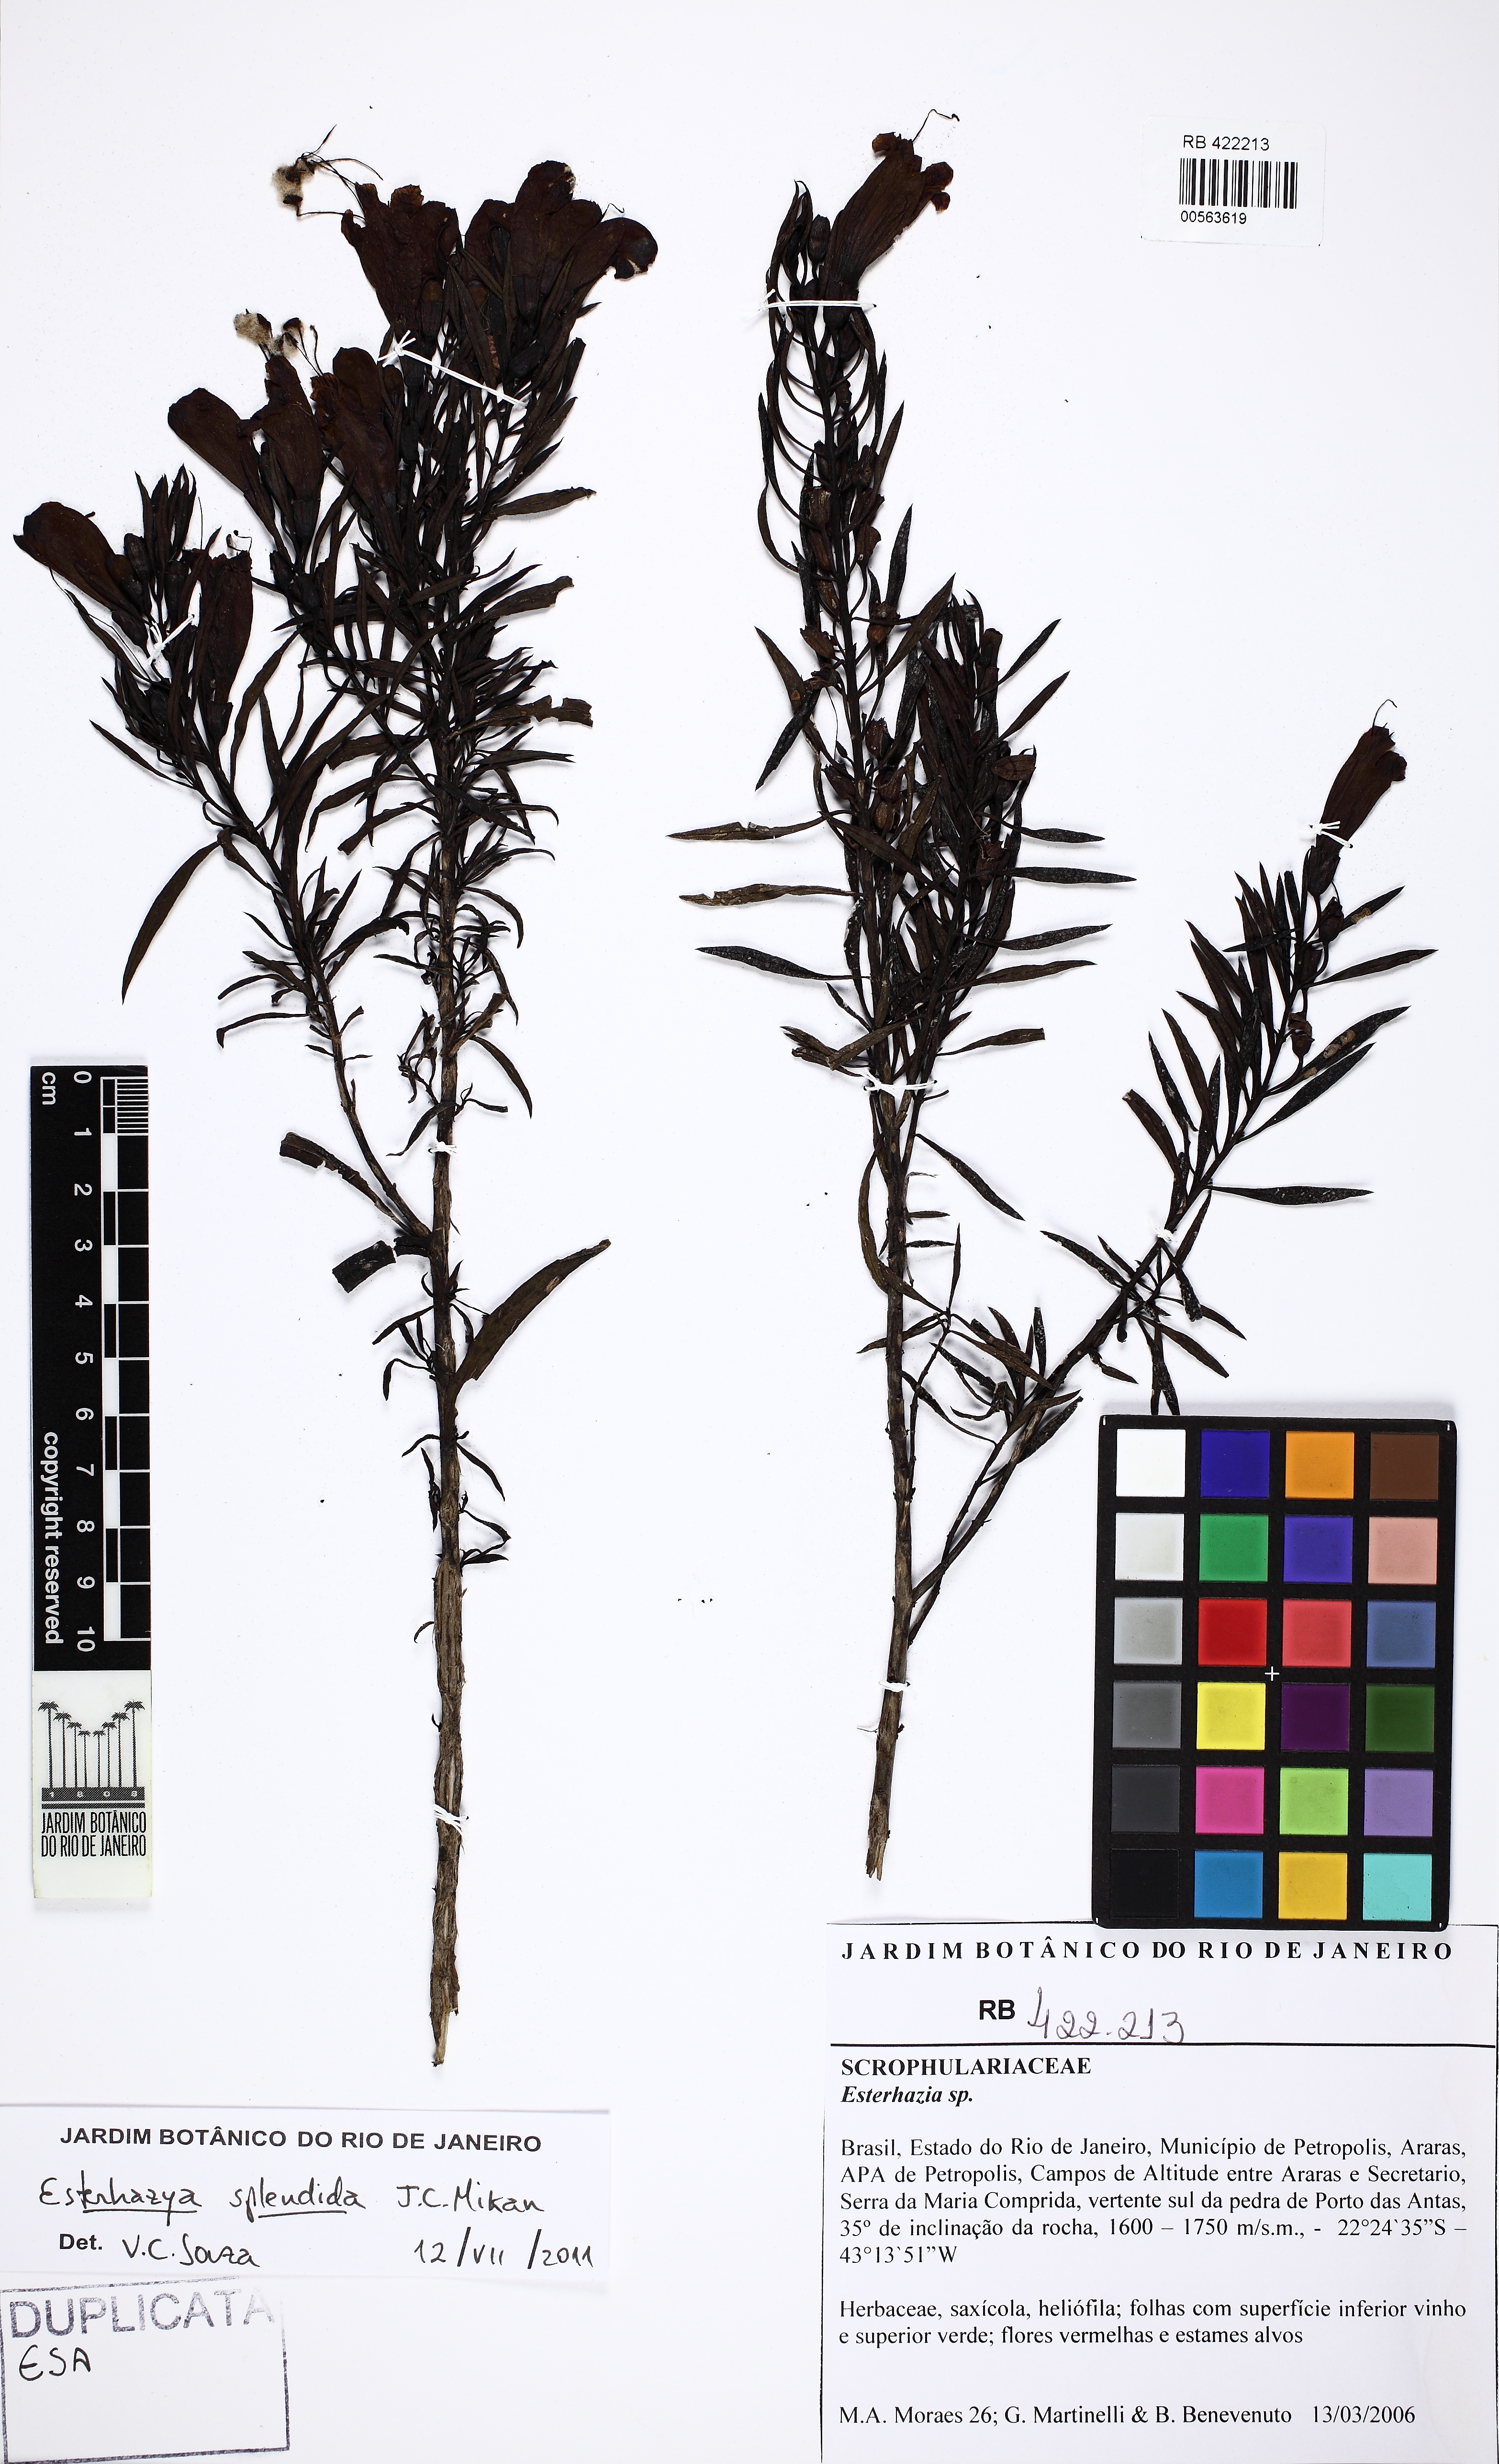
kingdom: Plantae
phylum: Tracheophyta
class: Magnoliopsida
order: Lamiales
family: Scrophulariaceae
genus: Esterhazia
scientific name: Esterhazia
